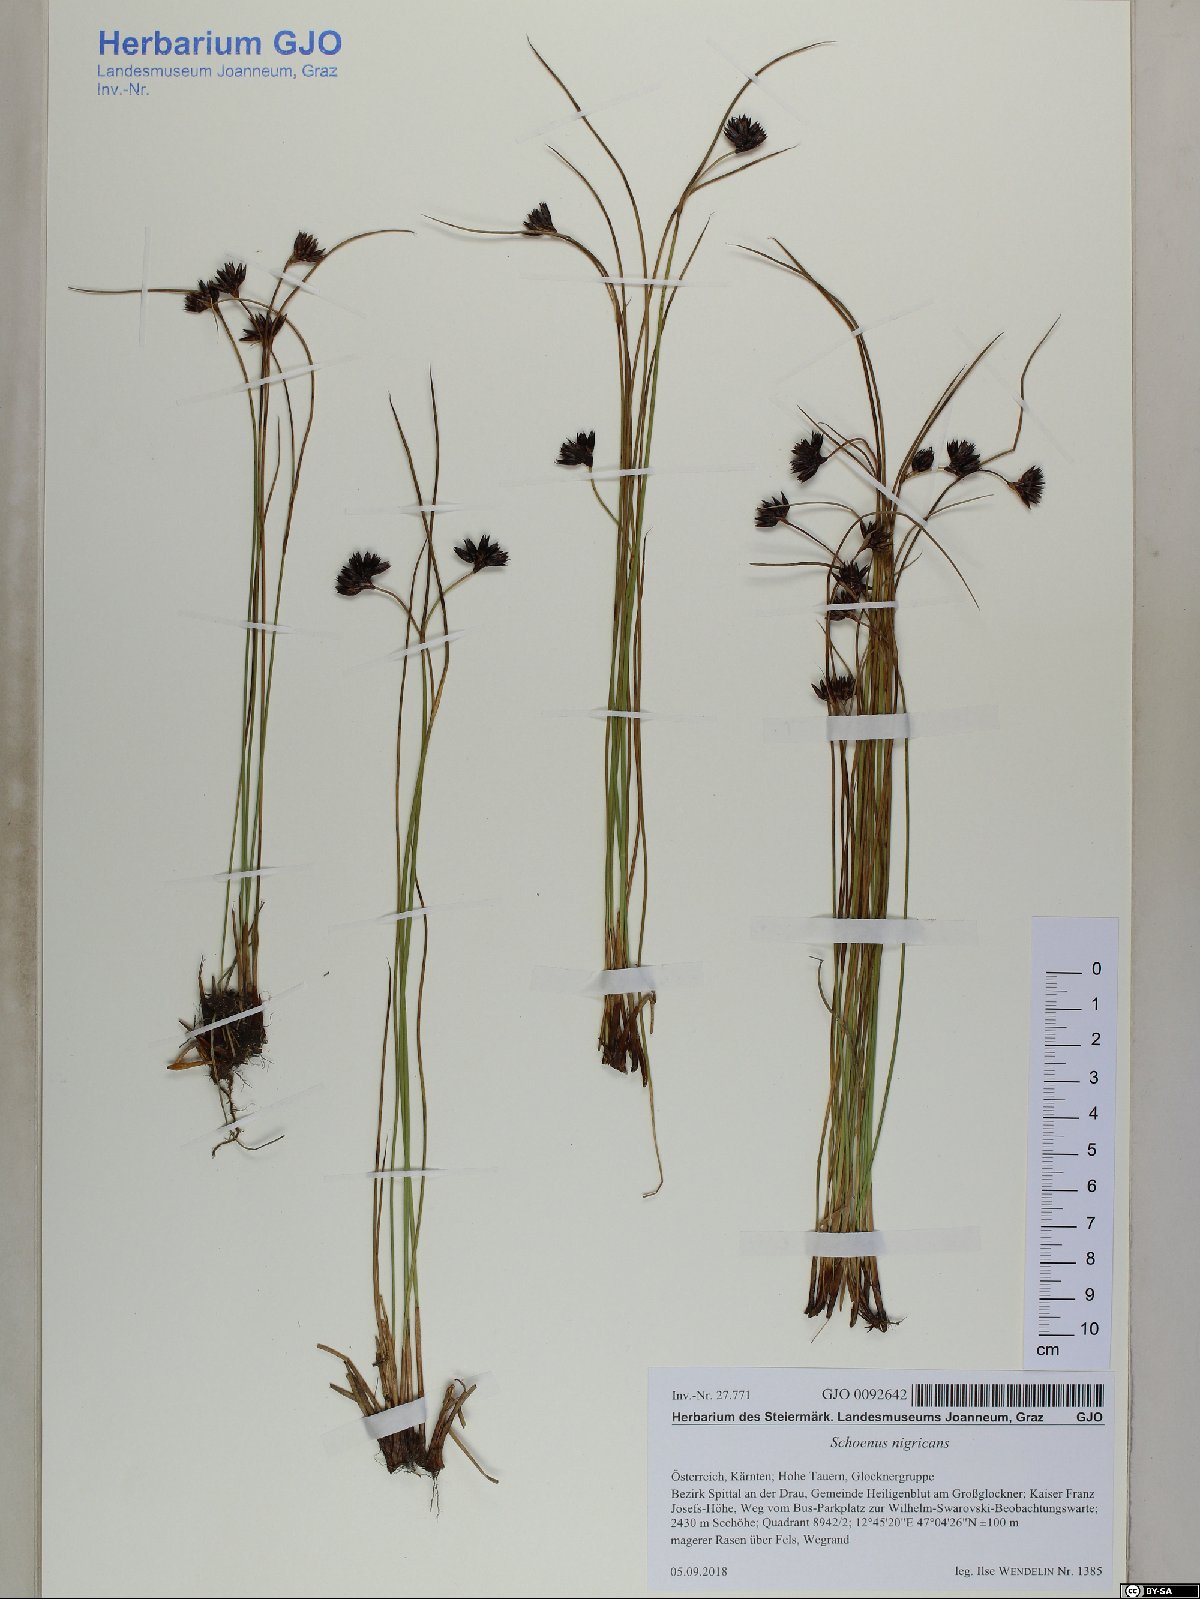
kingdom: Plantae
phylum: Tracheophyta
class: Liliopsida
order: Poales
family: Cyperaceae
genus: Schoenus
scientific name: Schoenus nigricans
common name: Black bog-rush
